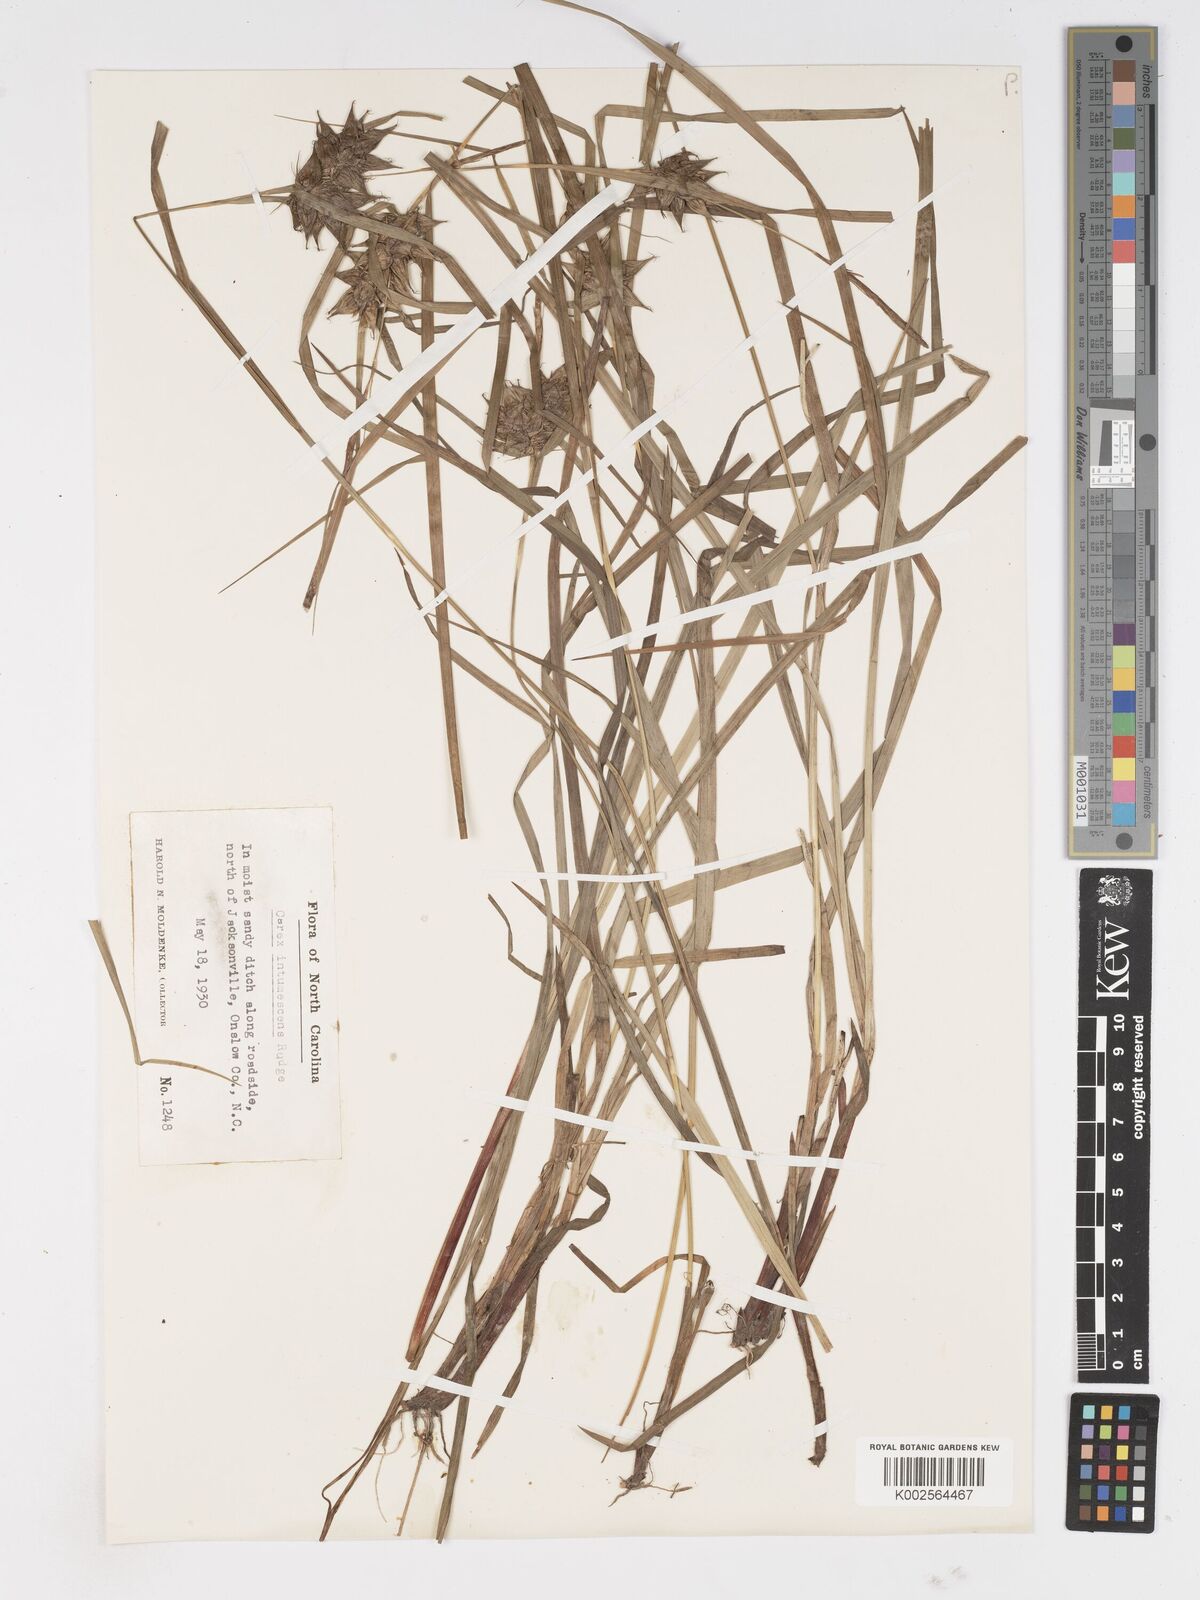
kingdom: Plantae
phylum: Tracheophyta
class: Liliopsida
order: Poales
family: Cyperaceae
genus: Carex
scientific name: Carex intumescens
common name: Greater bladder sedge
